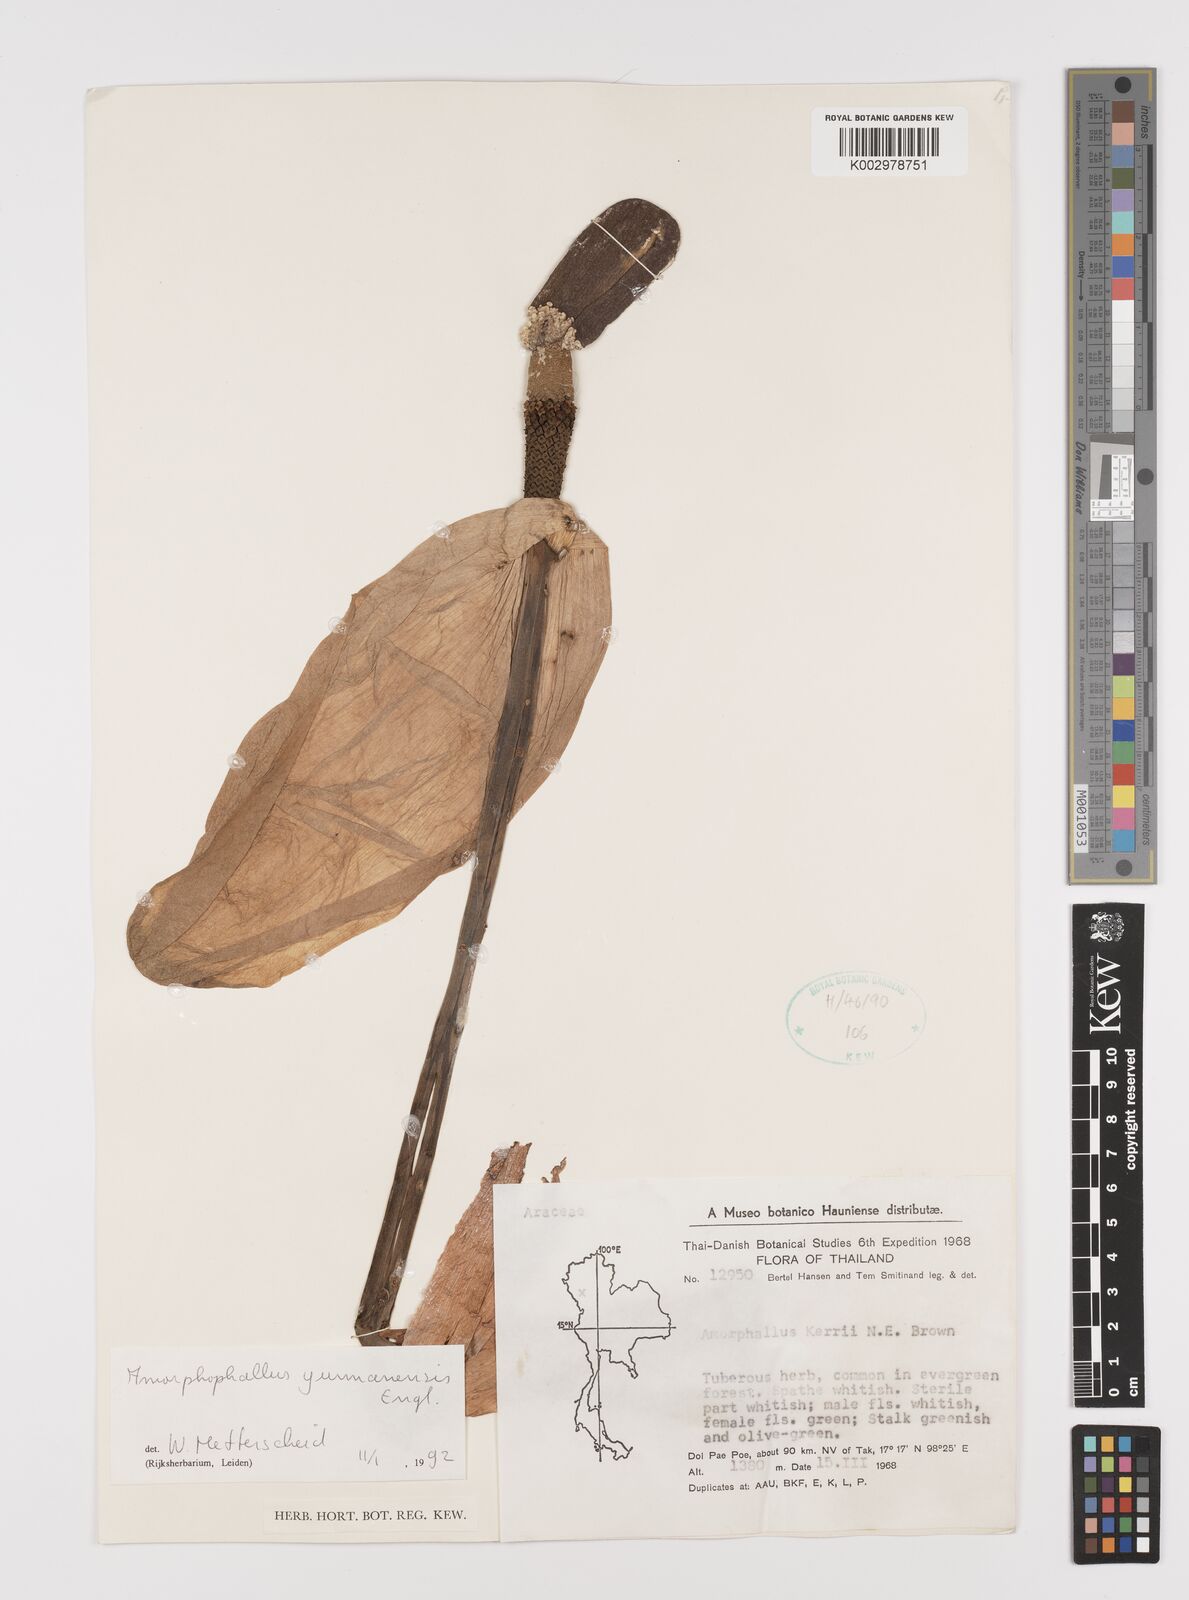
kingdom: Plantae
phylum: Tracheophyta
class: Liliopsida
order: Alismatales
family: Araceae
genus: Amorphophallus
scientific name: Amorphophallus yunnanensis
